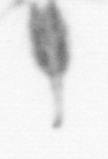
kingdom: Animalia
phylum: Arthropoda
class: Copepoda
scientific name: Copepoda
